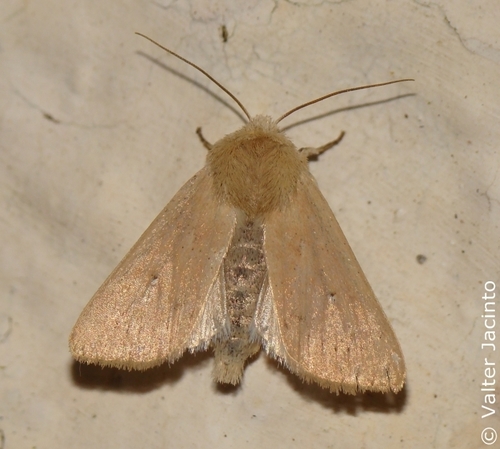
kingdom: Animalia
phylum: Arthropoda
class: Insecta
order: Lepidoptera
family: Noctuidae
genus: Mythimna
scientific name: Mythimna sicula
